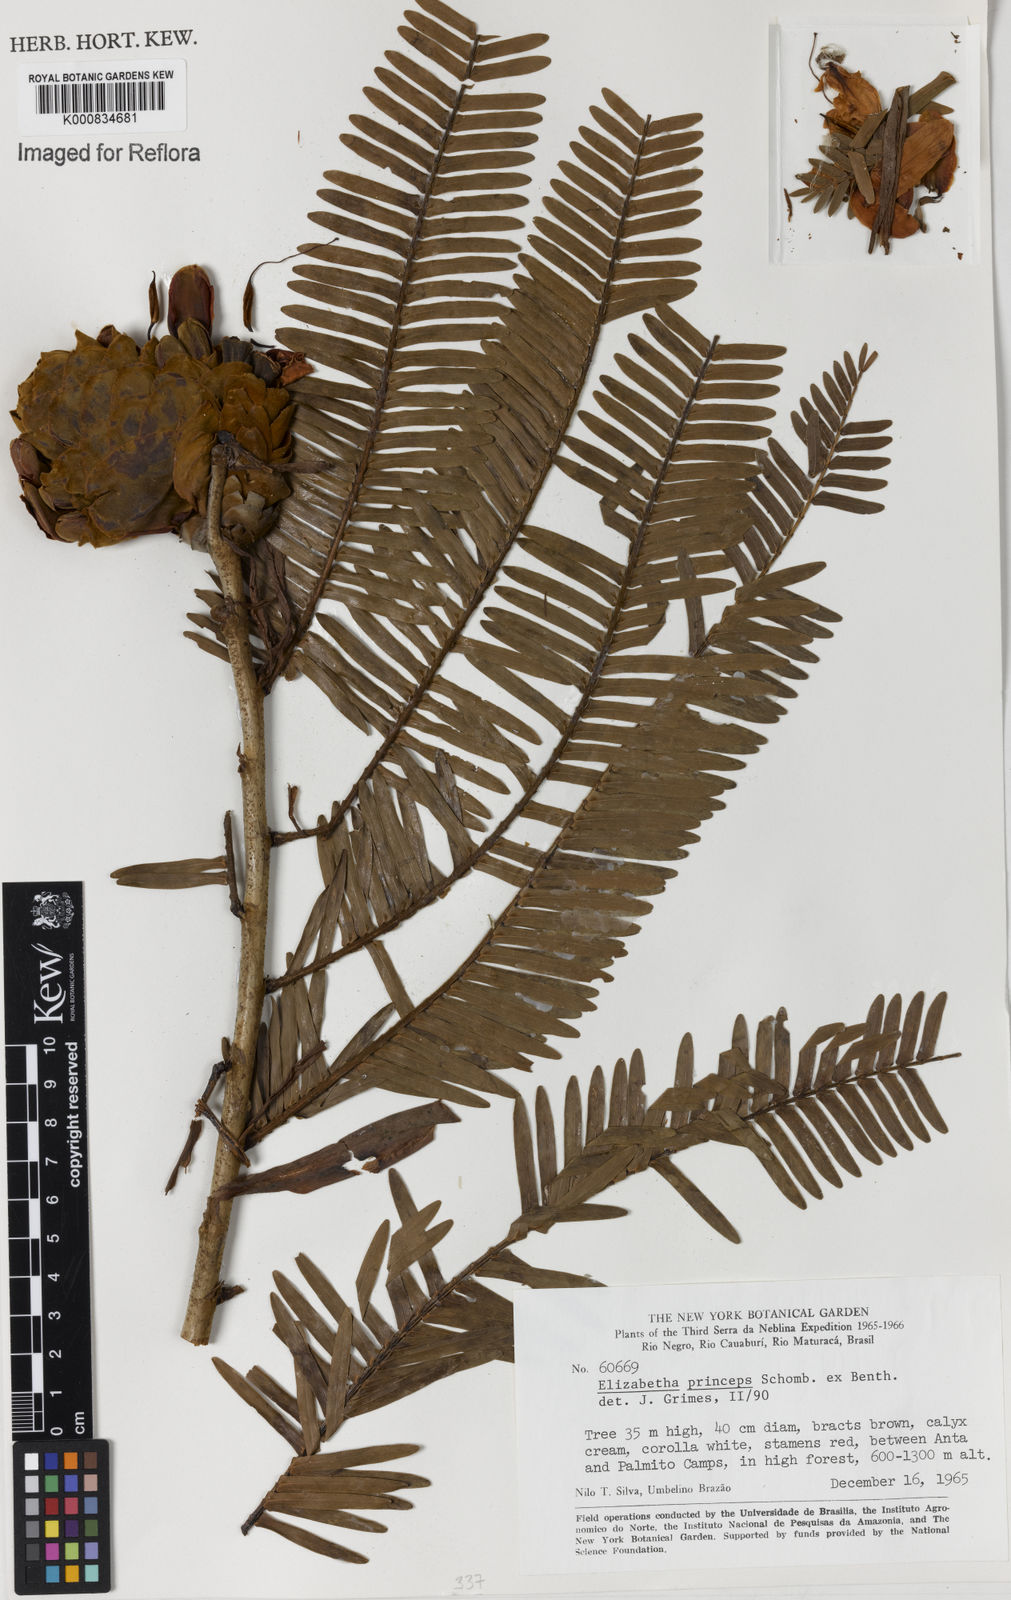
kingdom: Plantae
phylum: Tracheophyta
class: Magnoliopsida
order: Fabales
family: Fabaceae
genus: Paloue
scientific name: Paloue princeps
